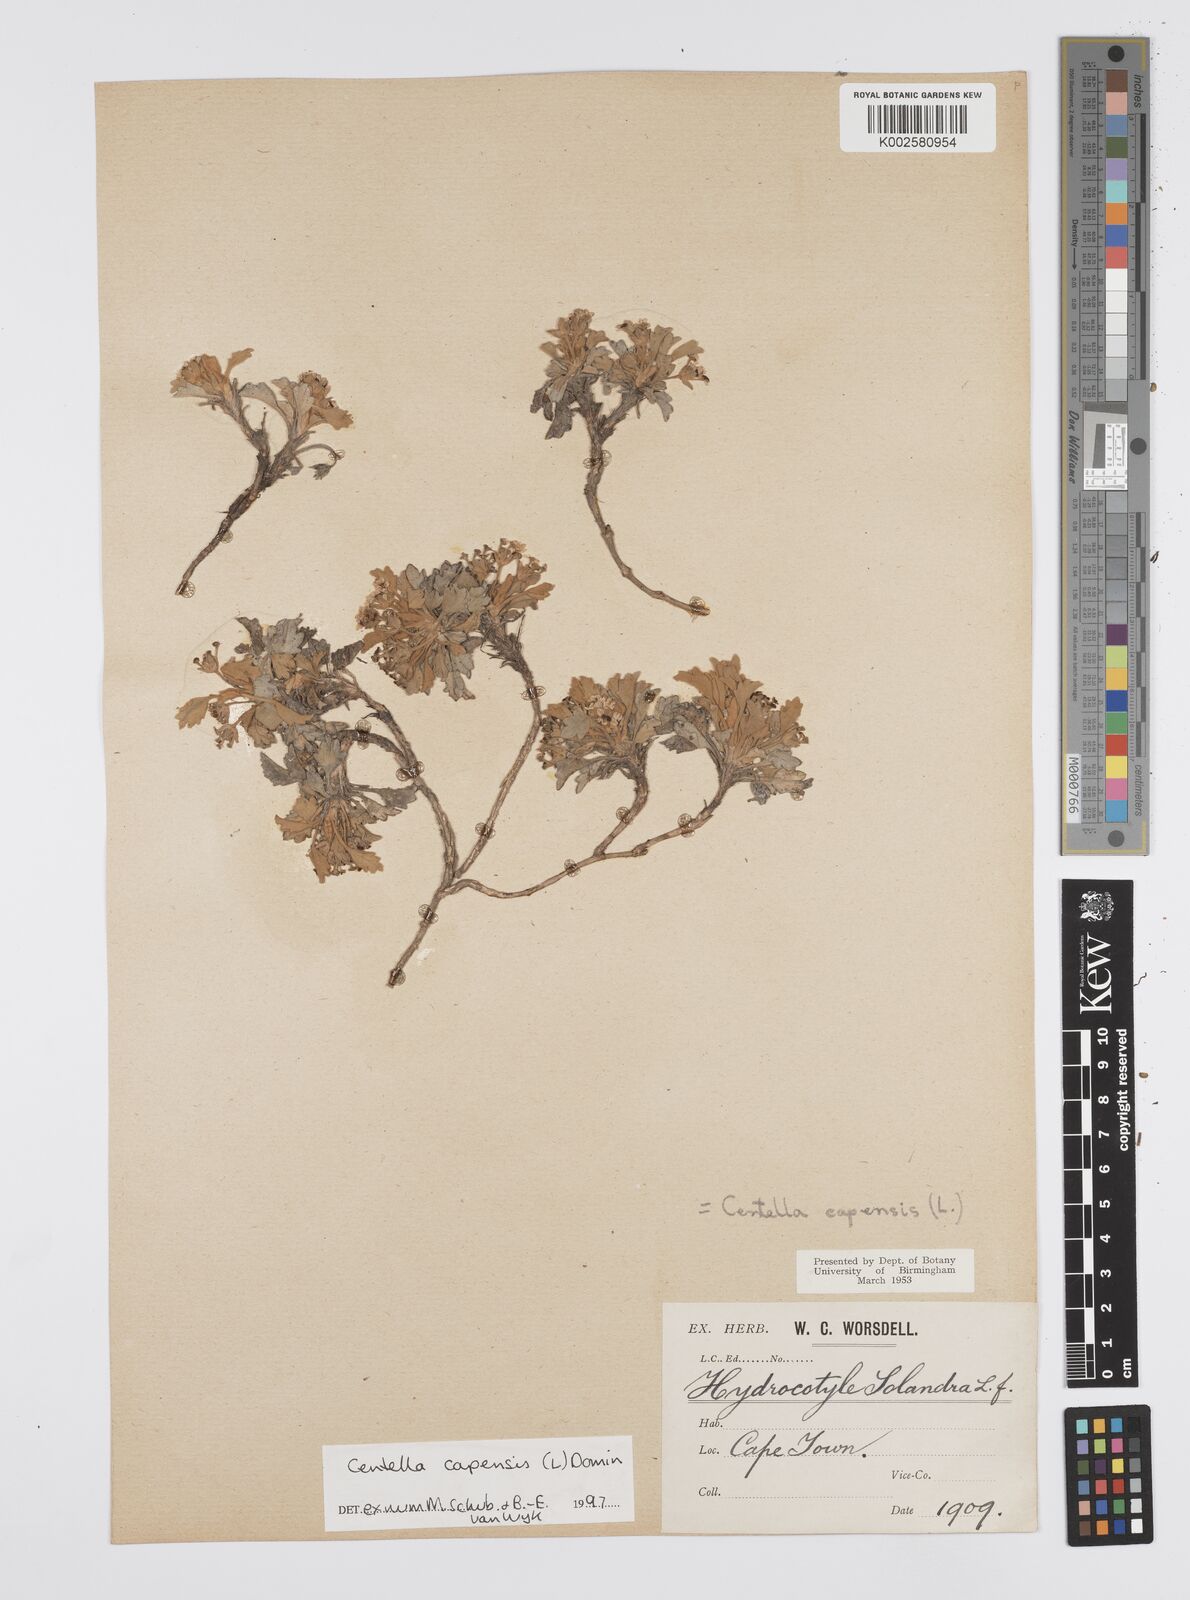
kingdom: Plantae
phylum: Tracheophyta
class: Magnoliopsida
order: Apiales
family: Apiaceae
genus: Centella
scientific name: Centella capensis
